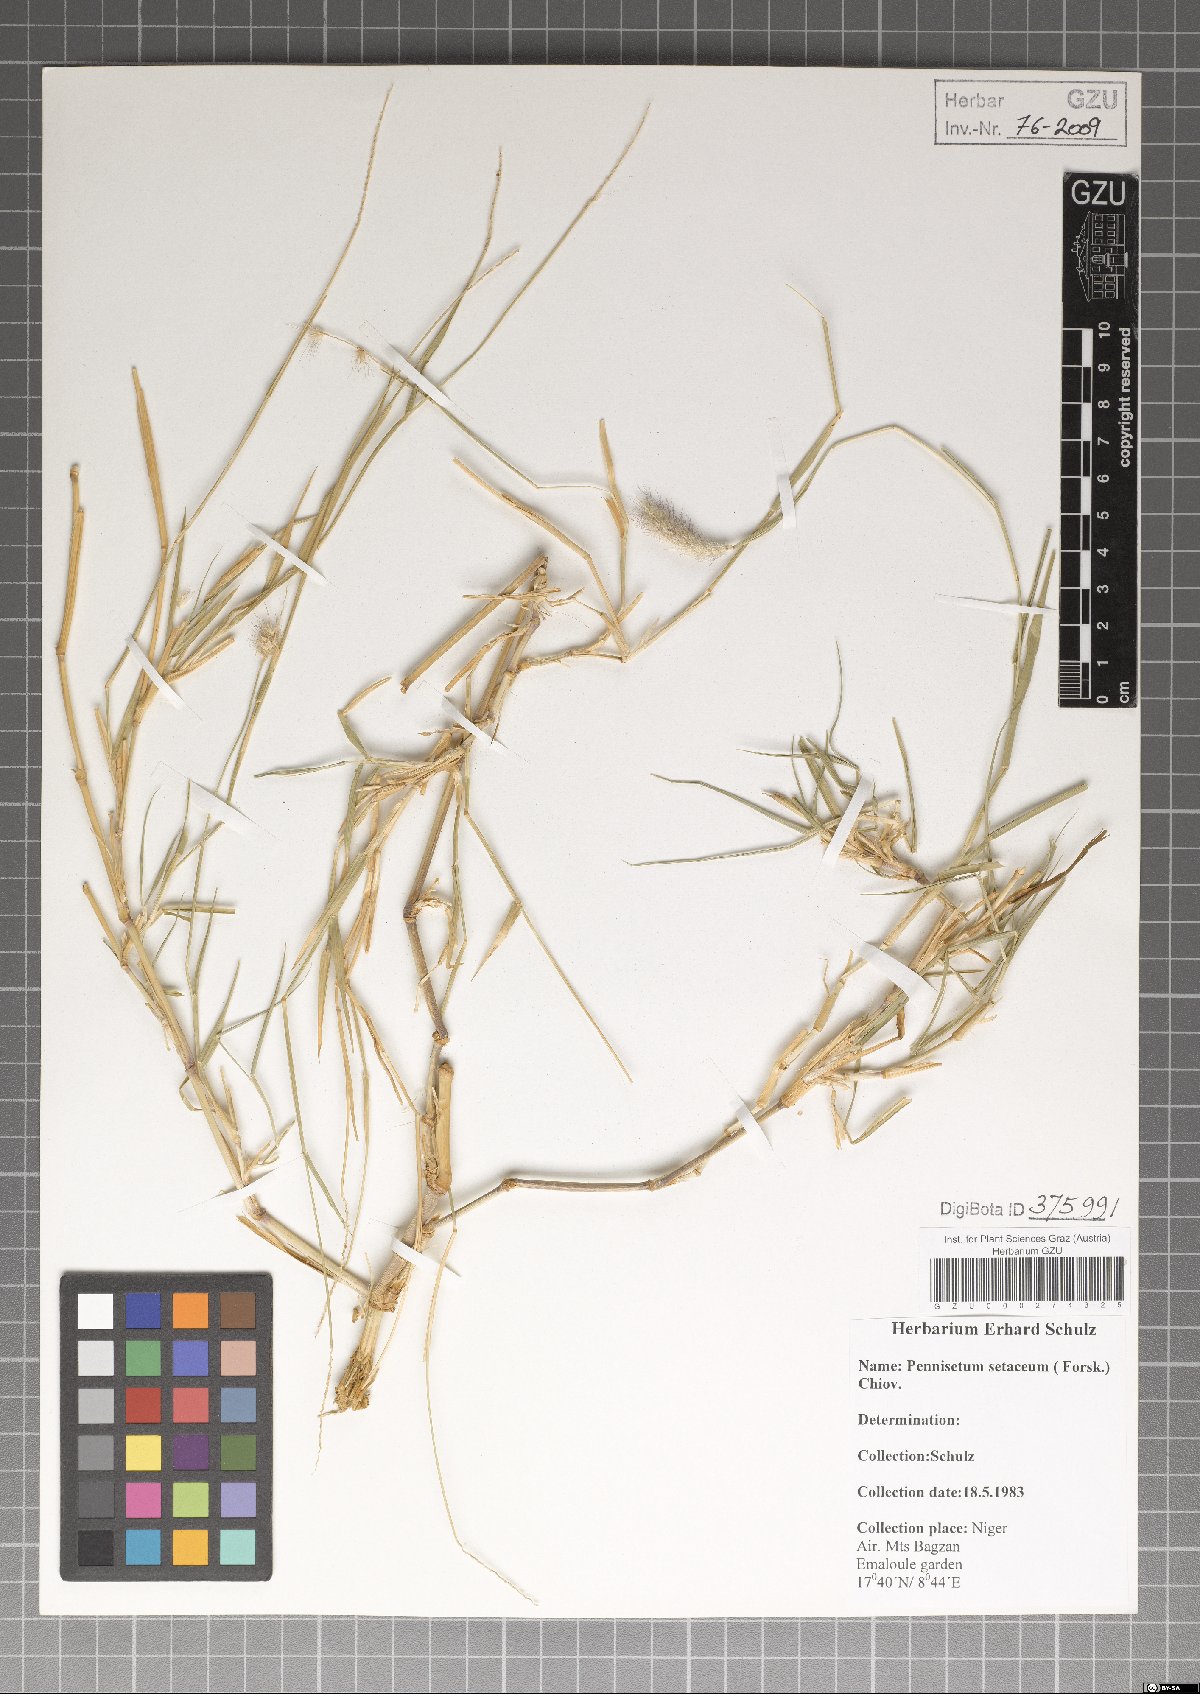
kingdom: Plantae
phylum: Tracheophyta
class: Liliopsida
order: Poales
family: Poaceae
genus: Cenchrus
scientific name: Cenchrus setaceus
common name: Crimson fountaingrass
